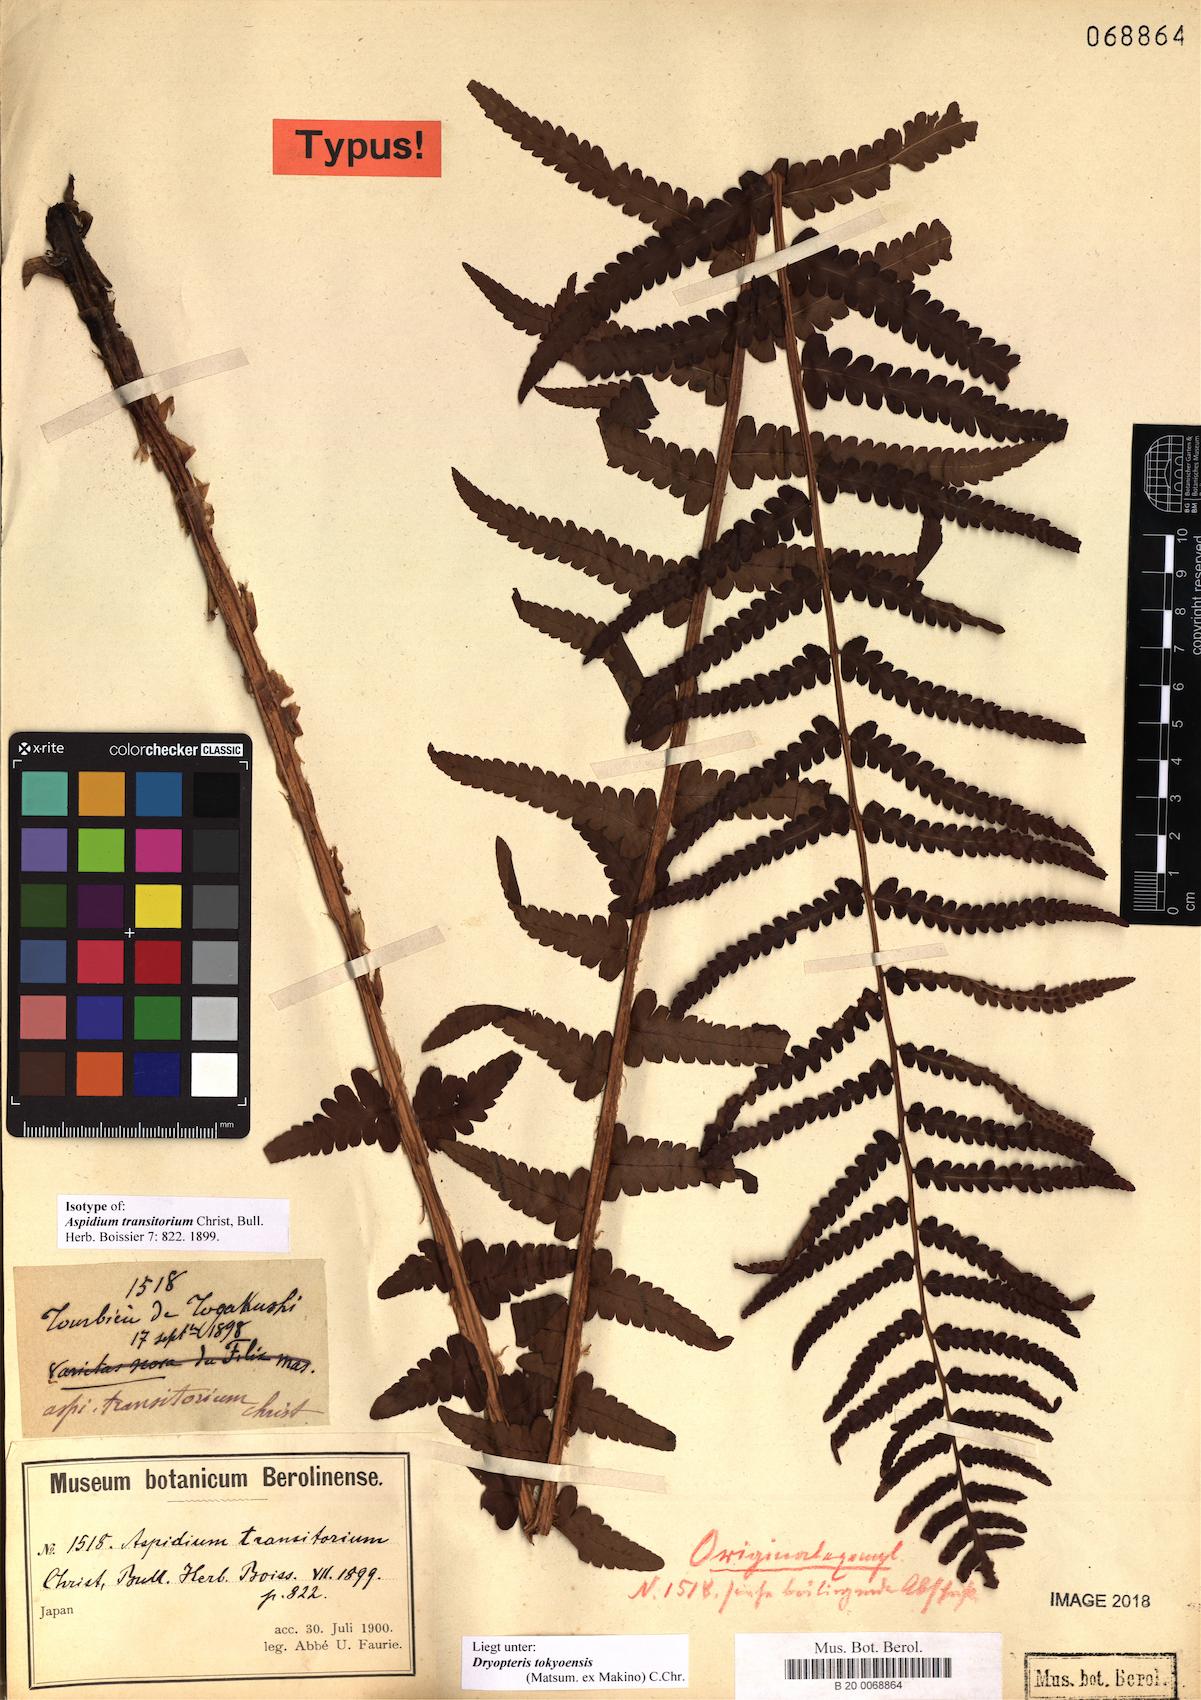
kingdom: Plantae
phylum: Tracheophyta
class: Polypodiopsida
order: Polypodiales
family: Dryopteridaceae
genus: Dryopteris
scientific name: Dryopteris tokyoensis
